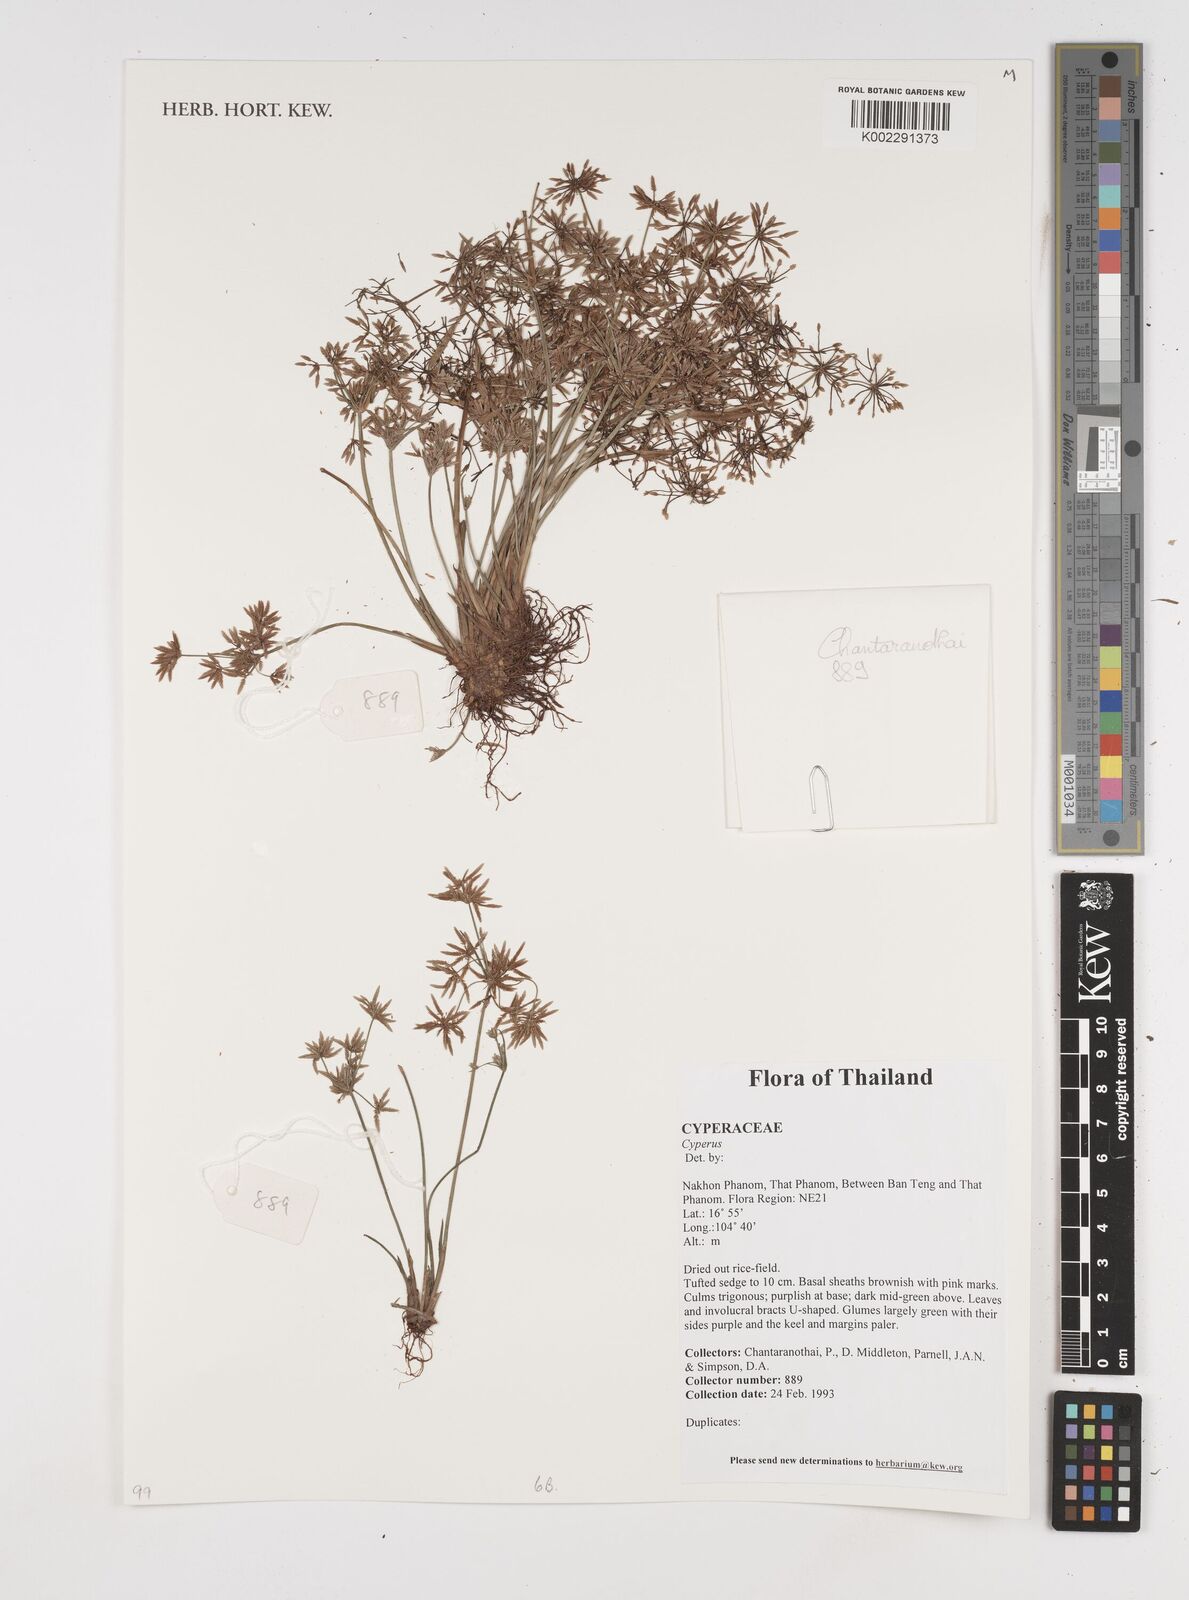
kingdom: Plantae
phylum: Tracheophyta
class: Liliopsida
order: Poales
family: Cyperaceae
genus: Cyperus
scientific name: Cyperus
